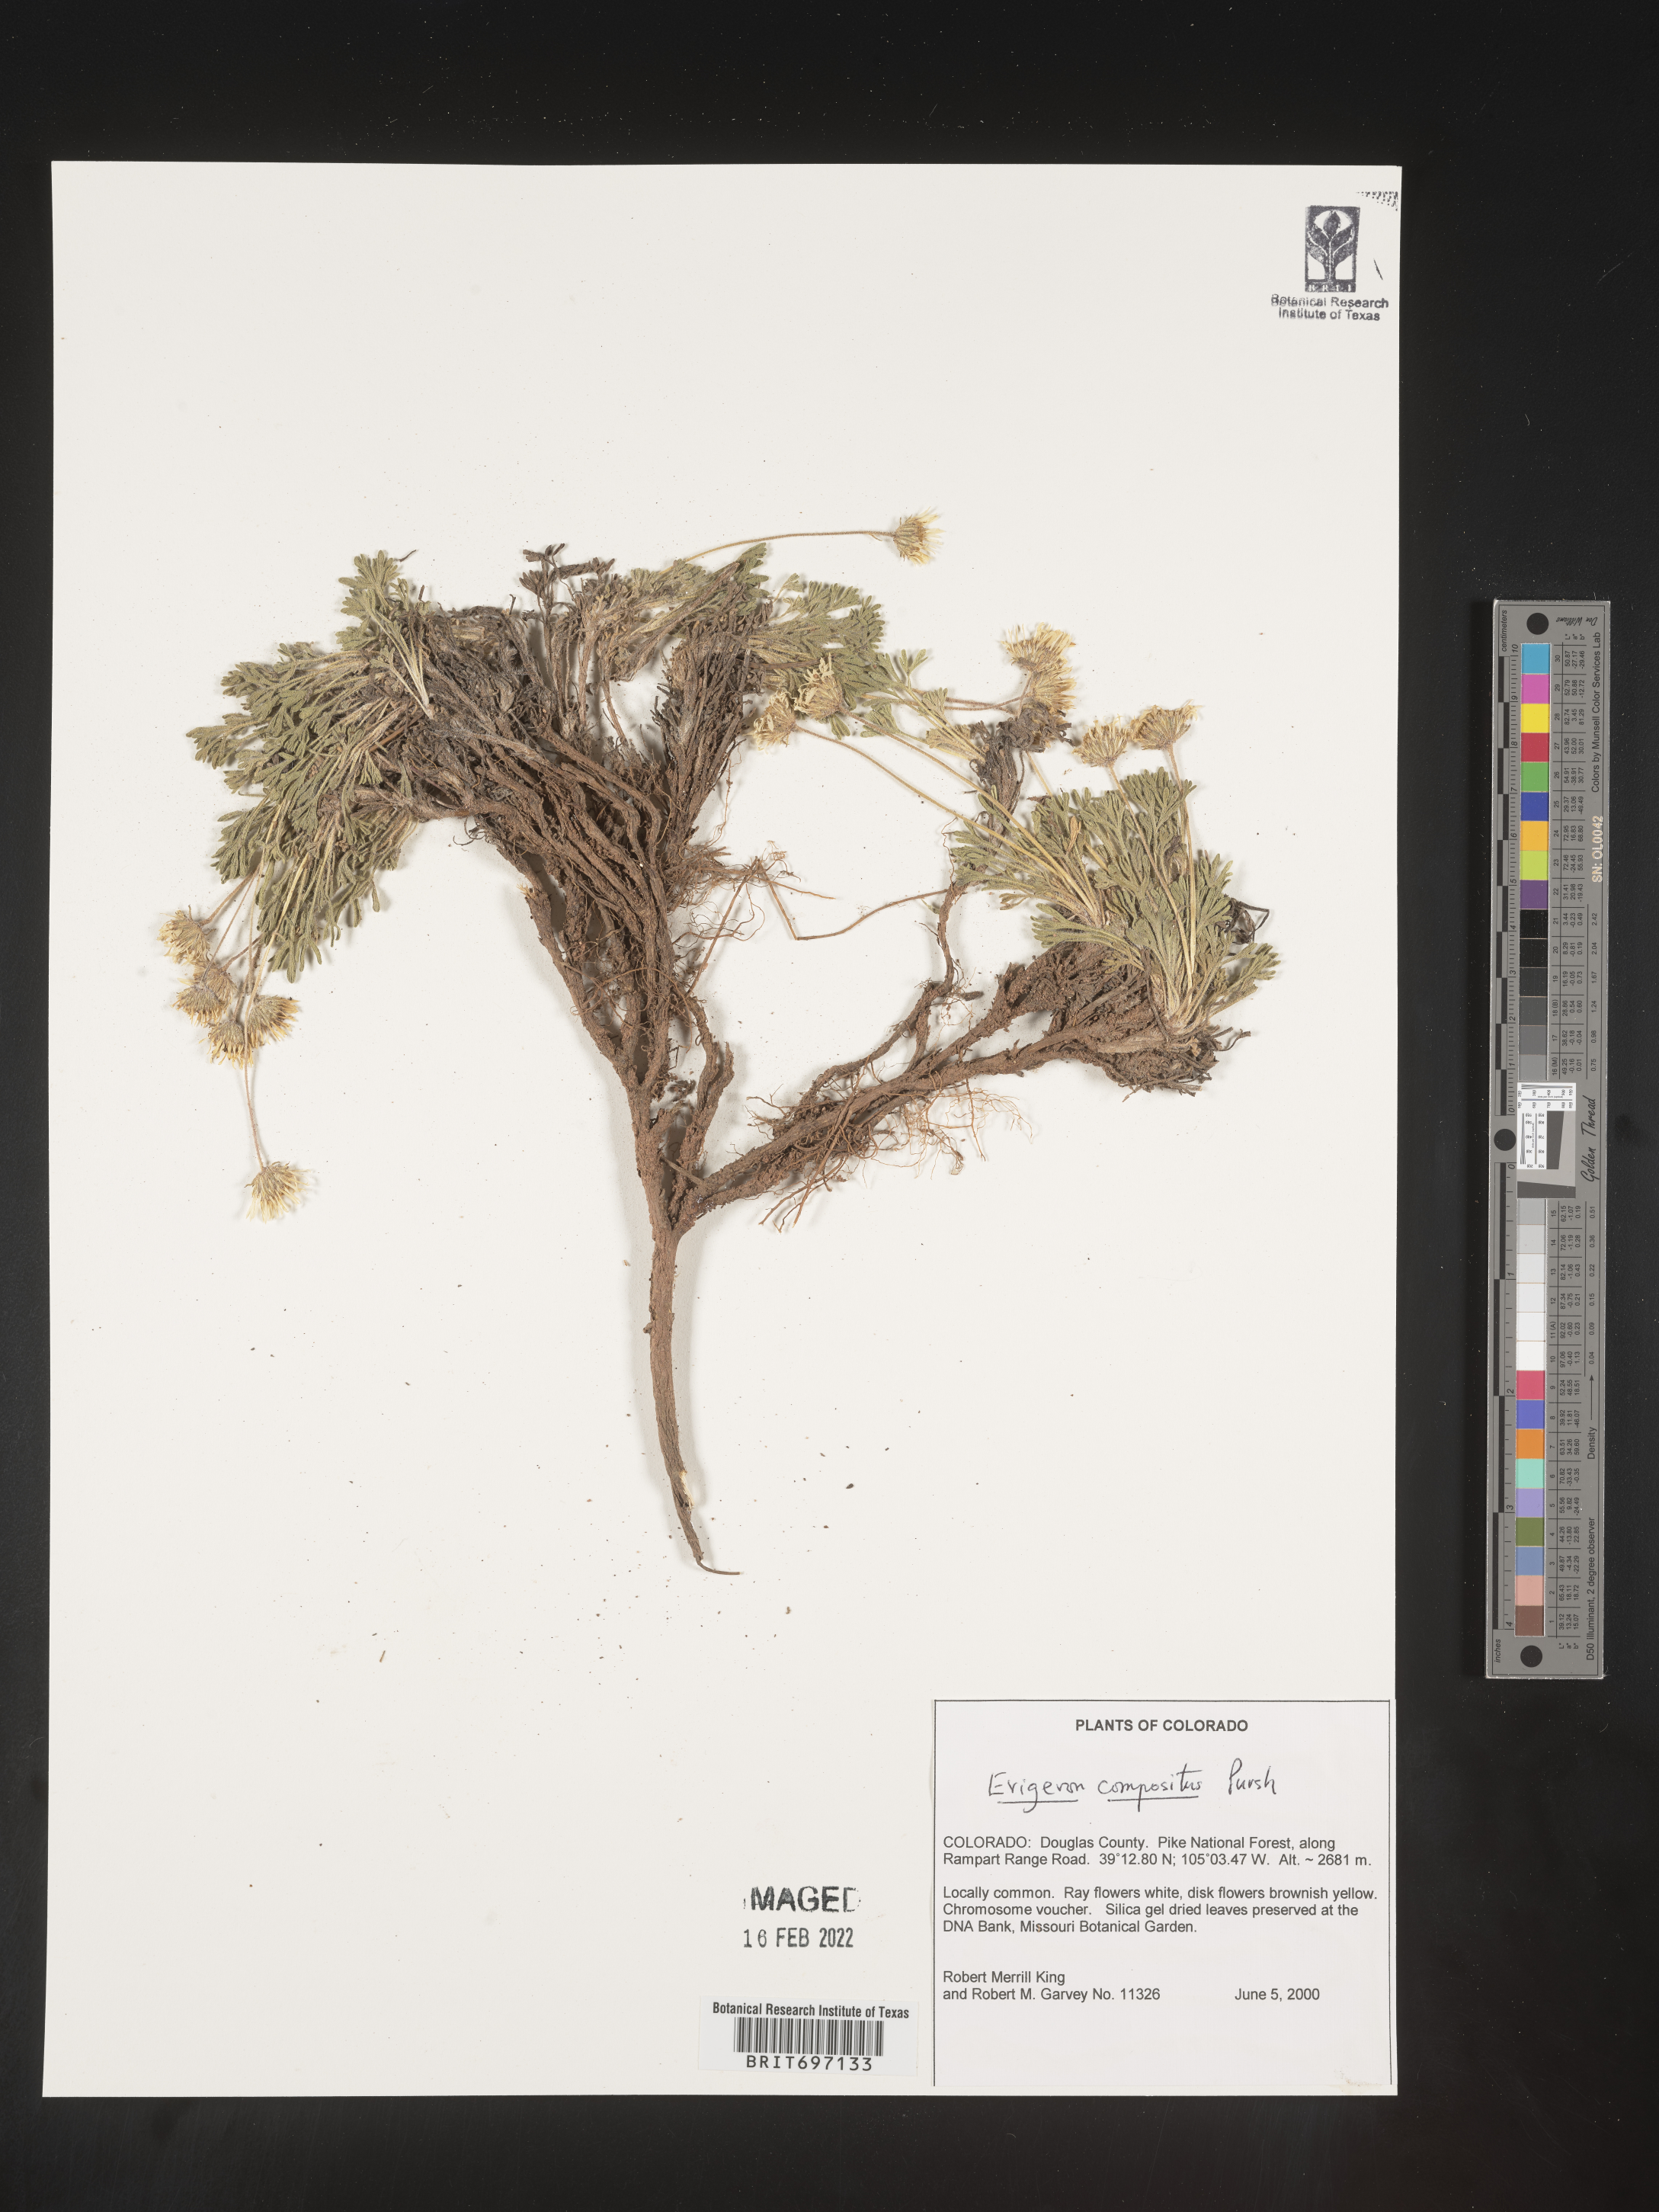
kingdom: Plantae
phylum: Tracheophyta
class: Magnoliopsida
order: Asterales
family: Asteraceae
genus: Erigeron
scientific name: Erigeron compositus
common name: Dwarf mountain fleabane
